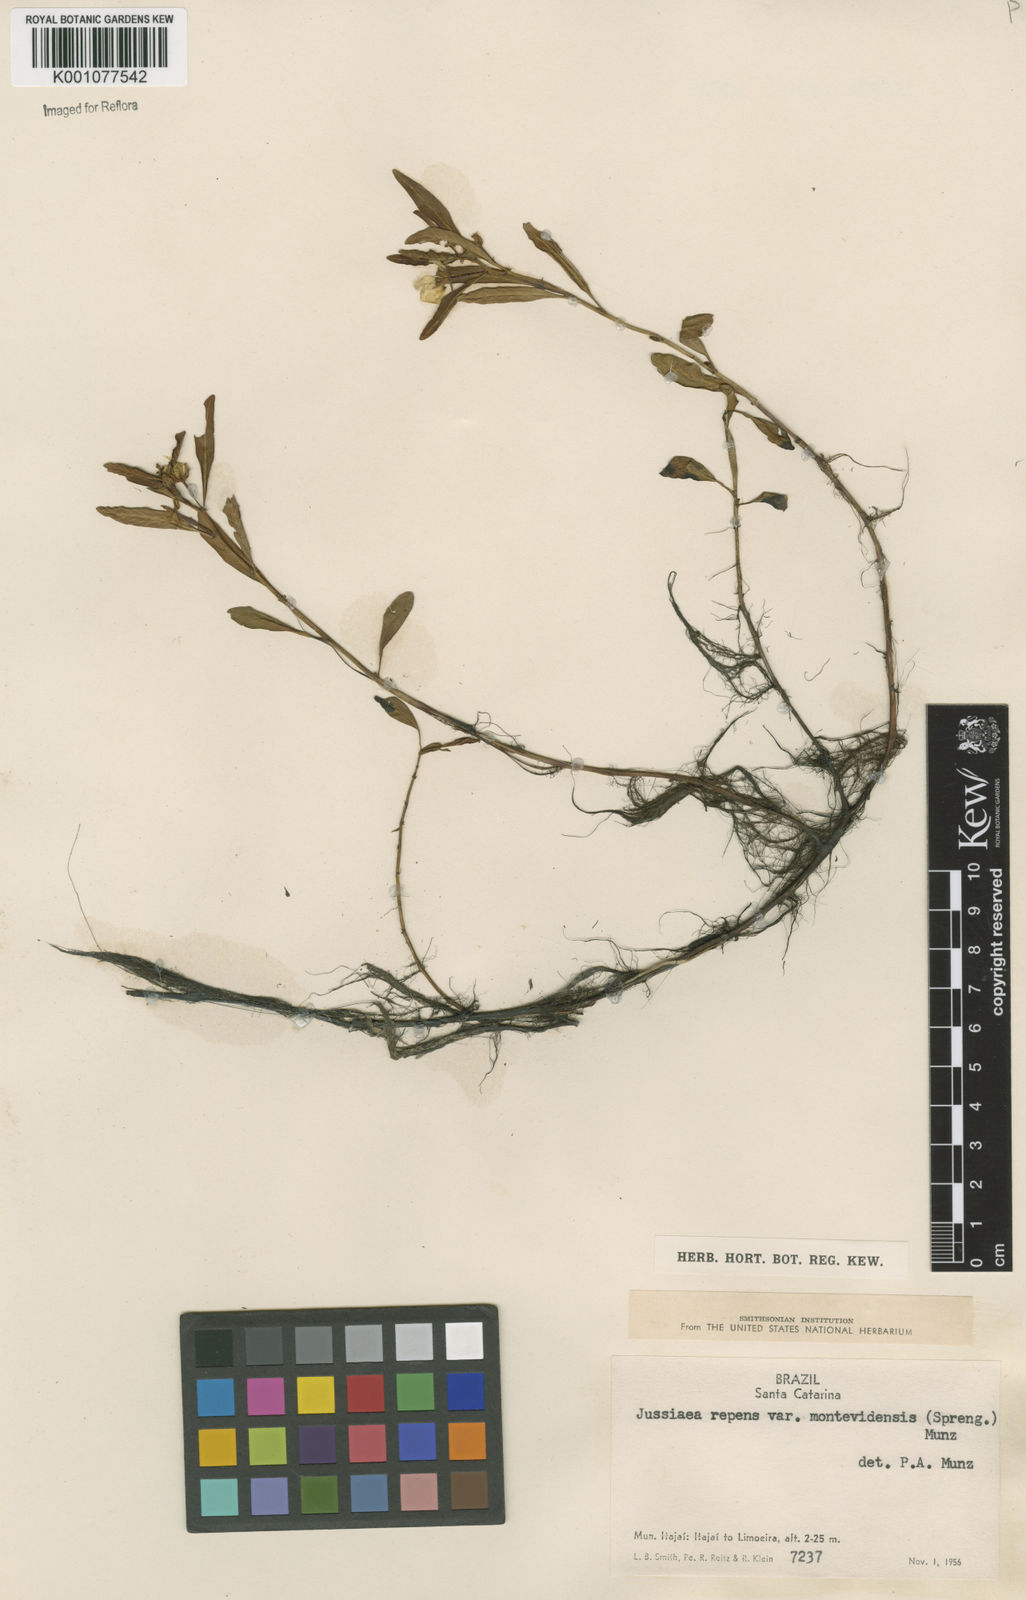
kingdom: Plantae
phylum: Tracheophyta
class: Magnoliopsida
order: Myrtales
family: Onagraceae
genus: Ludwigia
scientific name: Ludwigia adscendens
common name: Creeping water primrose
